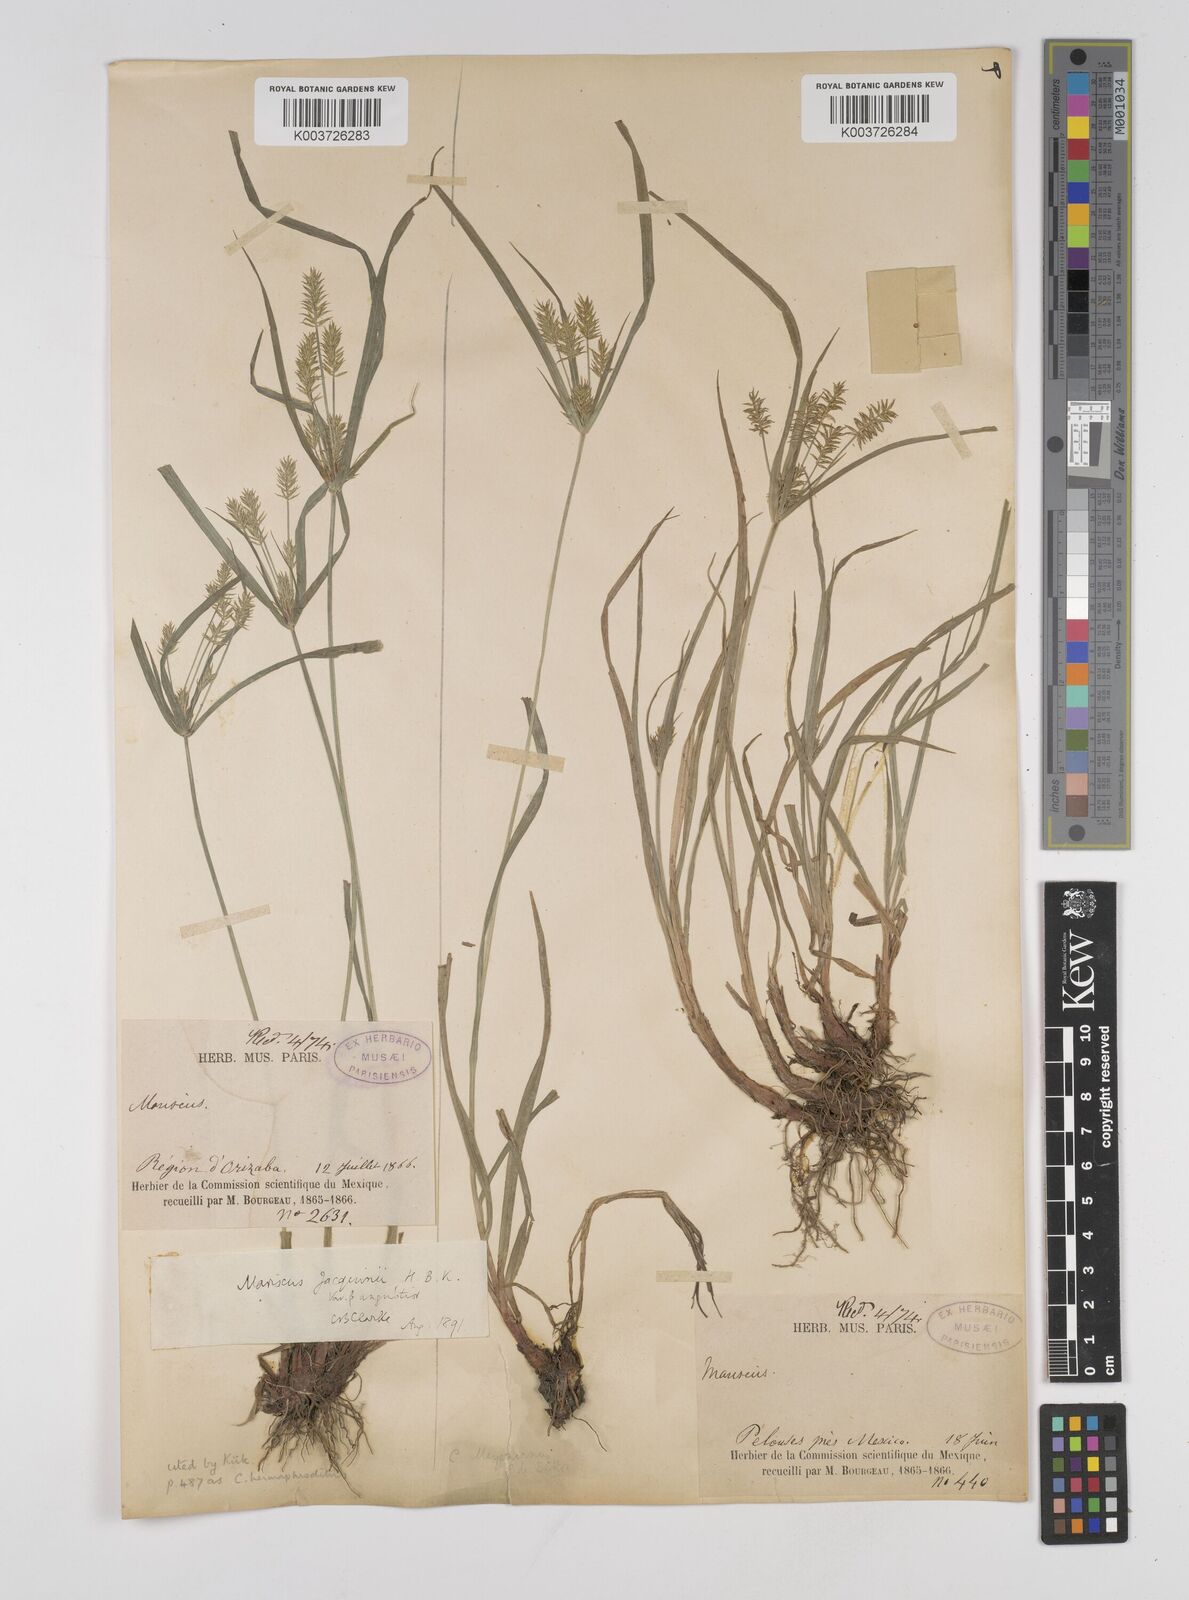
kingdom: Plantae
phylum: Tracheophyta
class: Liliopsida
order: Poales
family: Cyperaceae
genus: Cyperus
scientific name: Cyperus hermaphroditus
